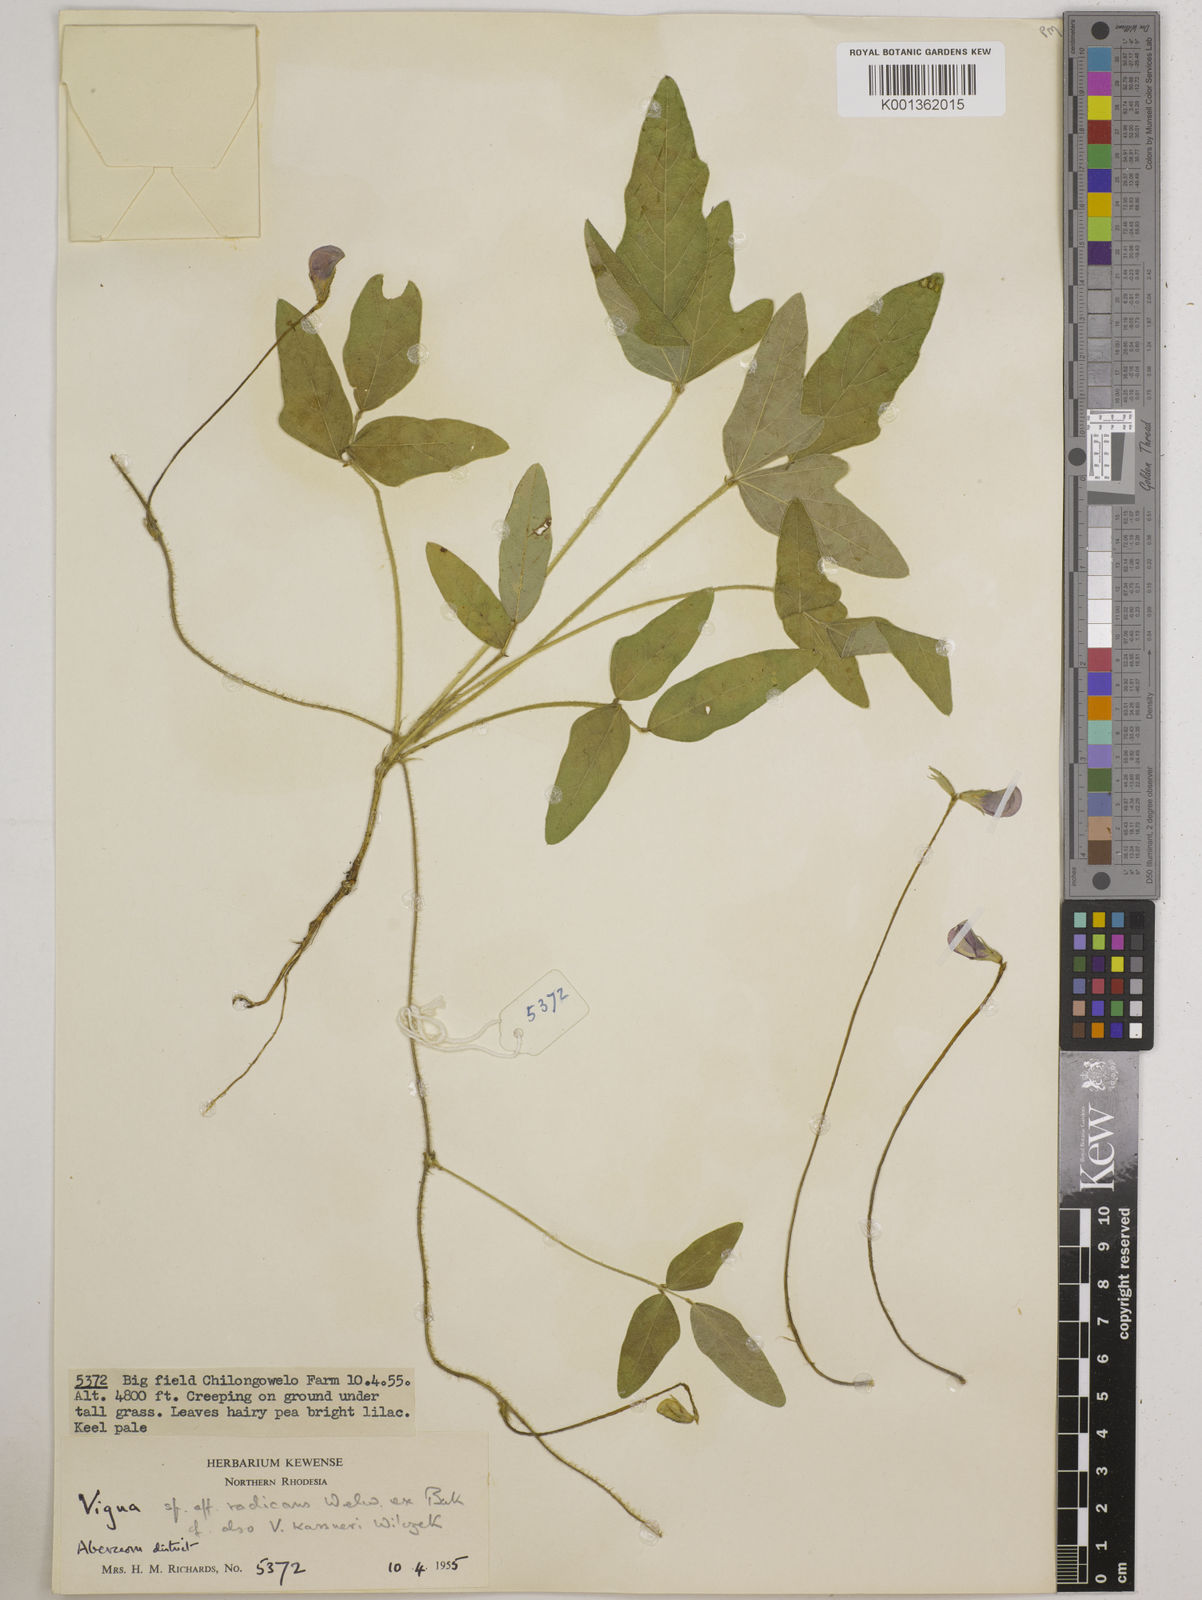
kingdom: Plantae
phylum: Tracheophyta
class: Magnoliopsida
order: Fabales
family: Fabaceae
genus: Vigna
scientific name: Vigna radicans
